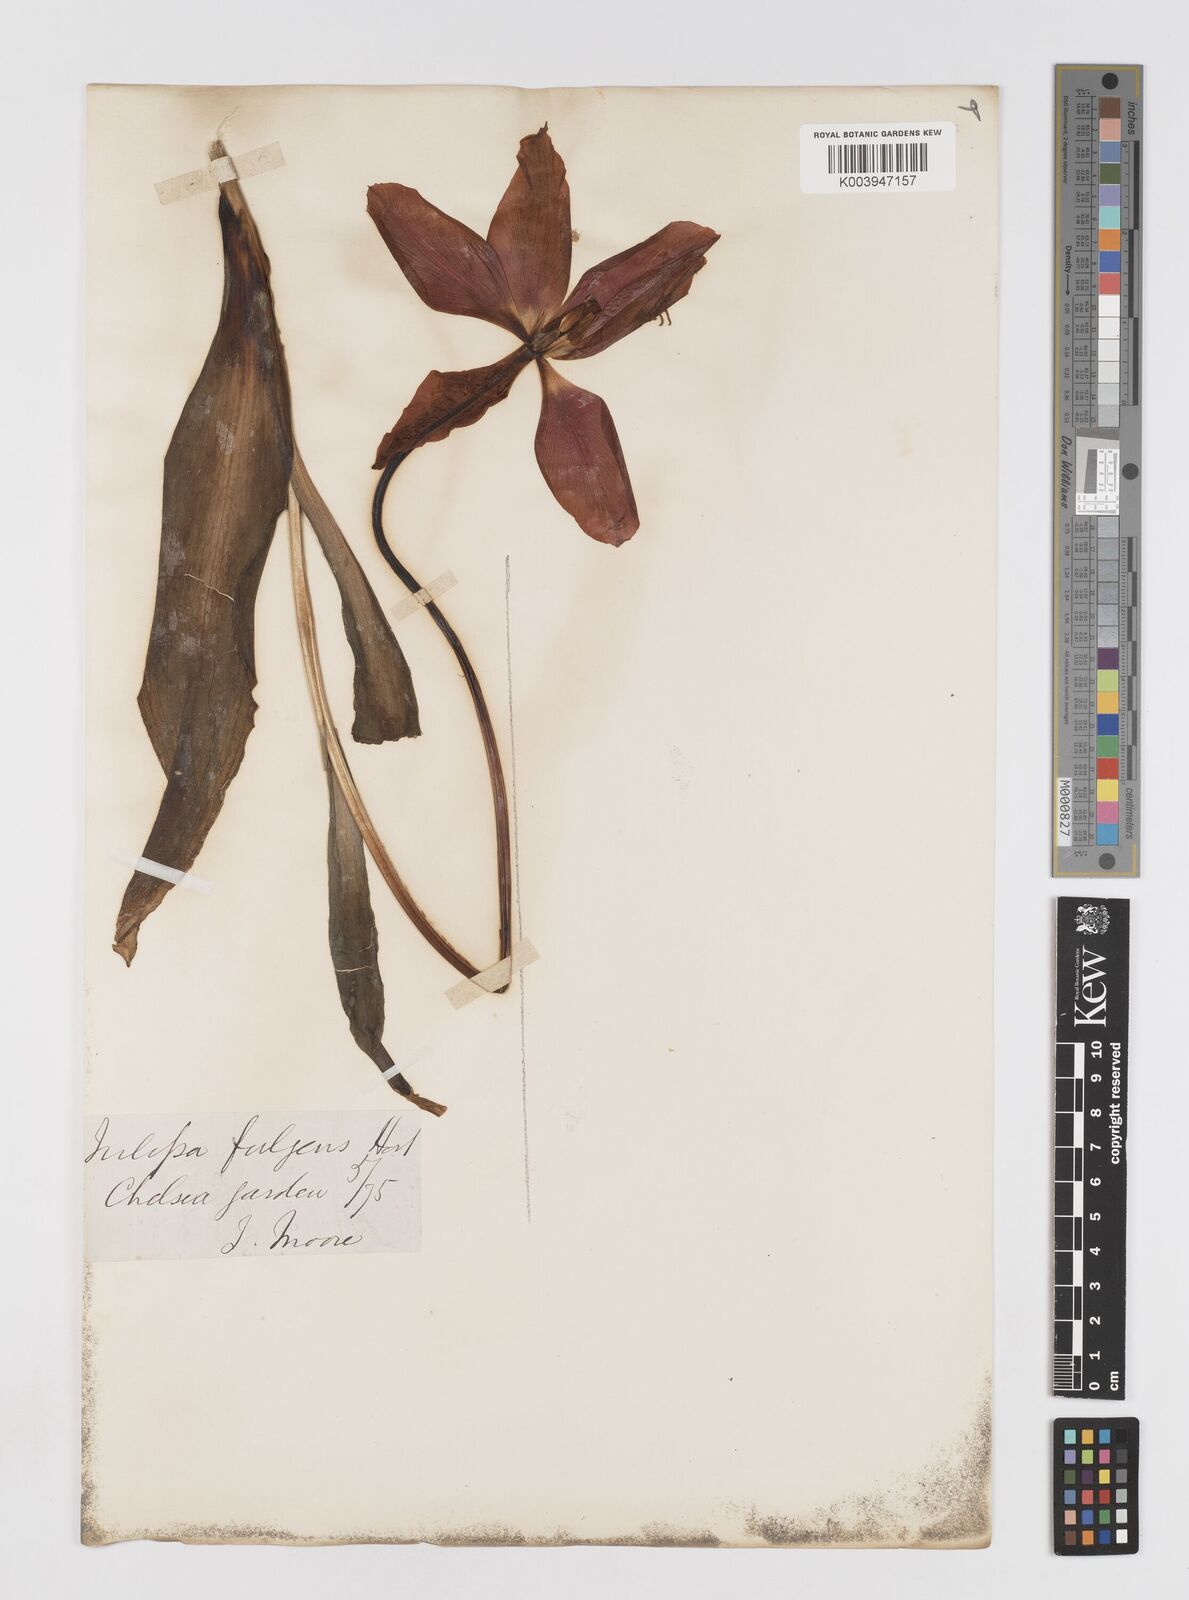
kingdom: Plantae
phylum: Tracheophyta
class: Liliopsida
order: Liliales
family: Liliaceae
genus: Tulipa
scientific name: Tulipa gesneriana
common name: Garden tulip
